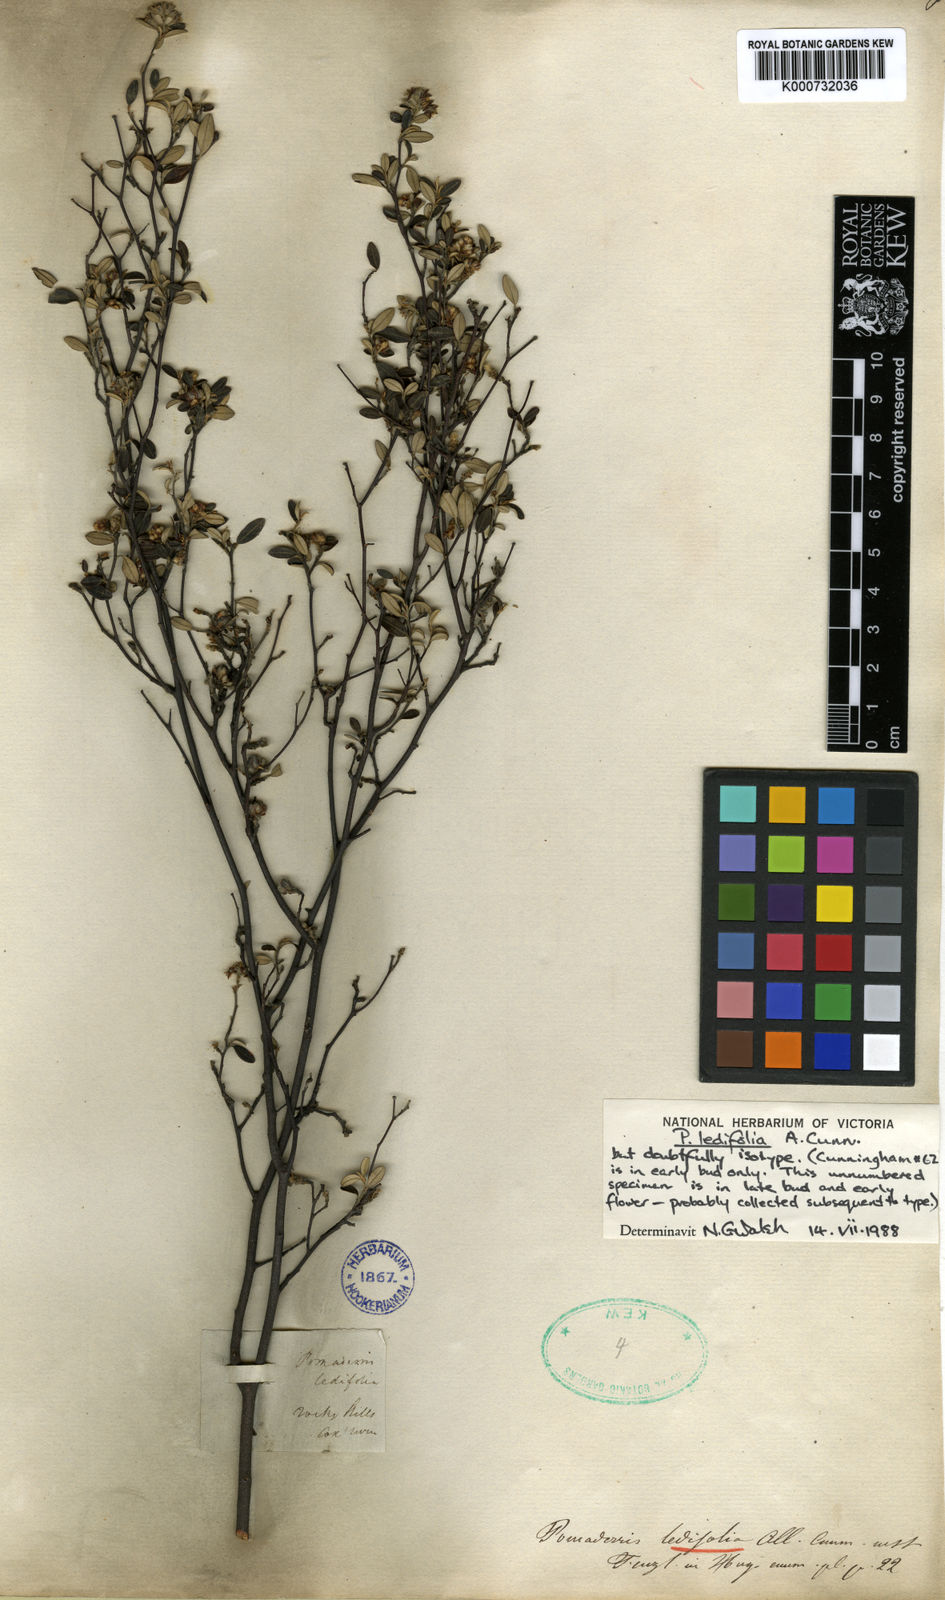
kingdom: Plantae
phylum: Tracheophyta
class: Magnoliopsida
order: Rosales
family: Rhamnaceae
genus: Pomaderris
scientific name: Pomaderris ledifolia
